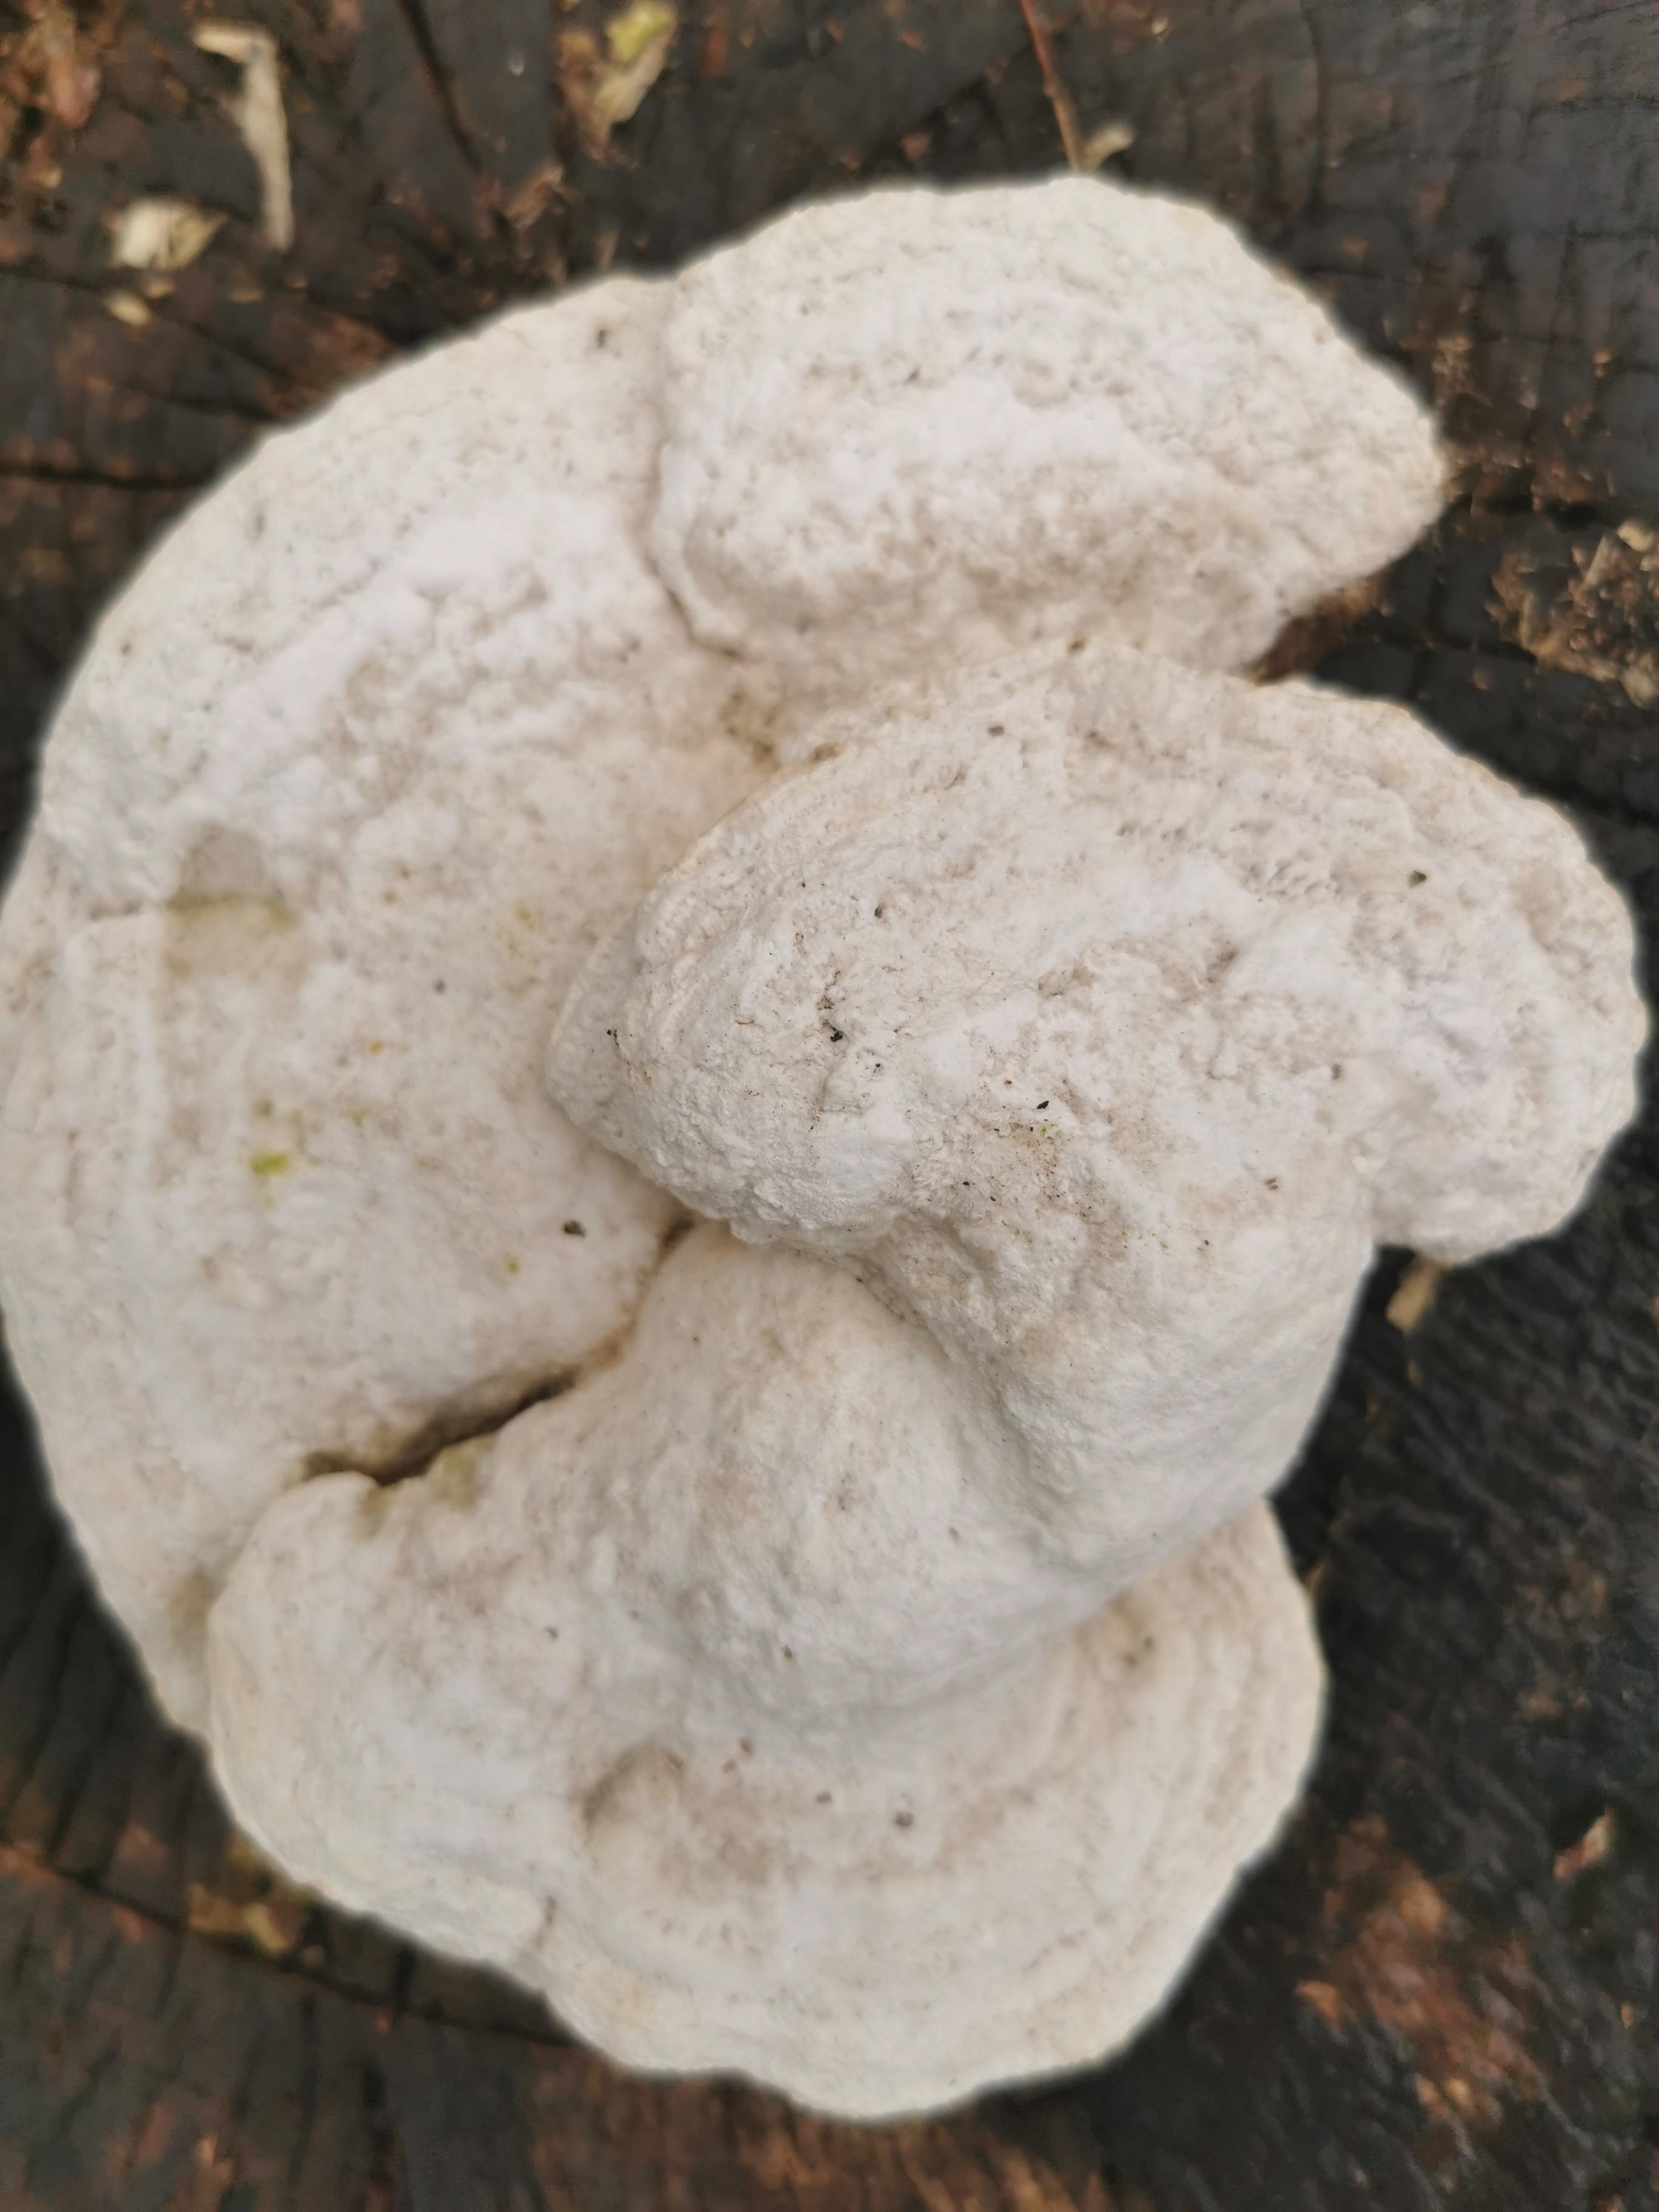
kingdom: Fungi
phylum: Basidiomycota
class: Agaricomycetes
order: Polyporales
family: Polyporaceae
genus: Trametes
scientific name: Trametes gibbosa
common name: puklet læderporesvamp
